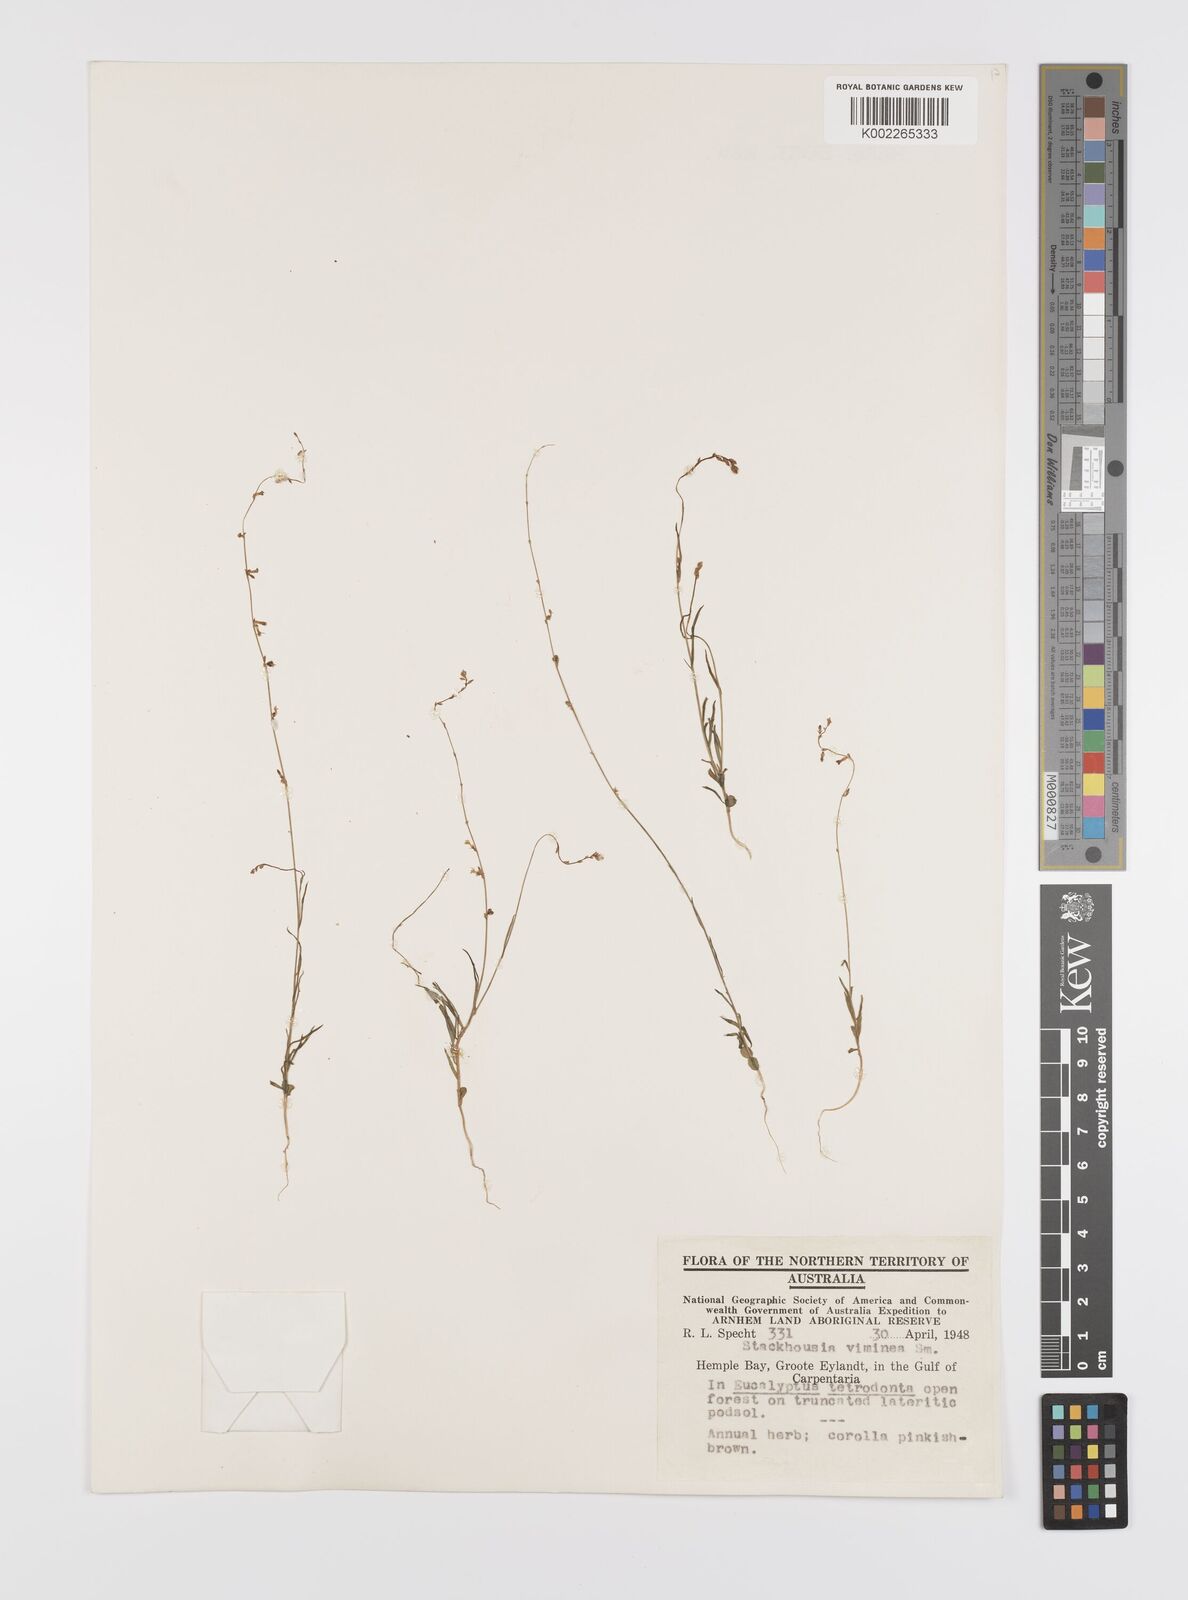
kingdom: Plantae
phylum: Tracheophyta
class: Magnoliopsida
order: Celastrales
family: Celastraceae
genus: Stackhousia
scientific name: Stackhousia viminea
